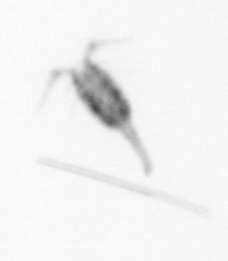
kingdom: Animalia
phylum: Arthropoda
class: Copepoda
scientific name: Copepoda
